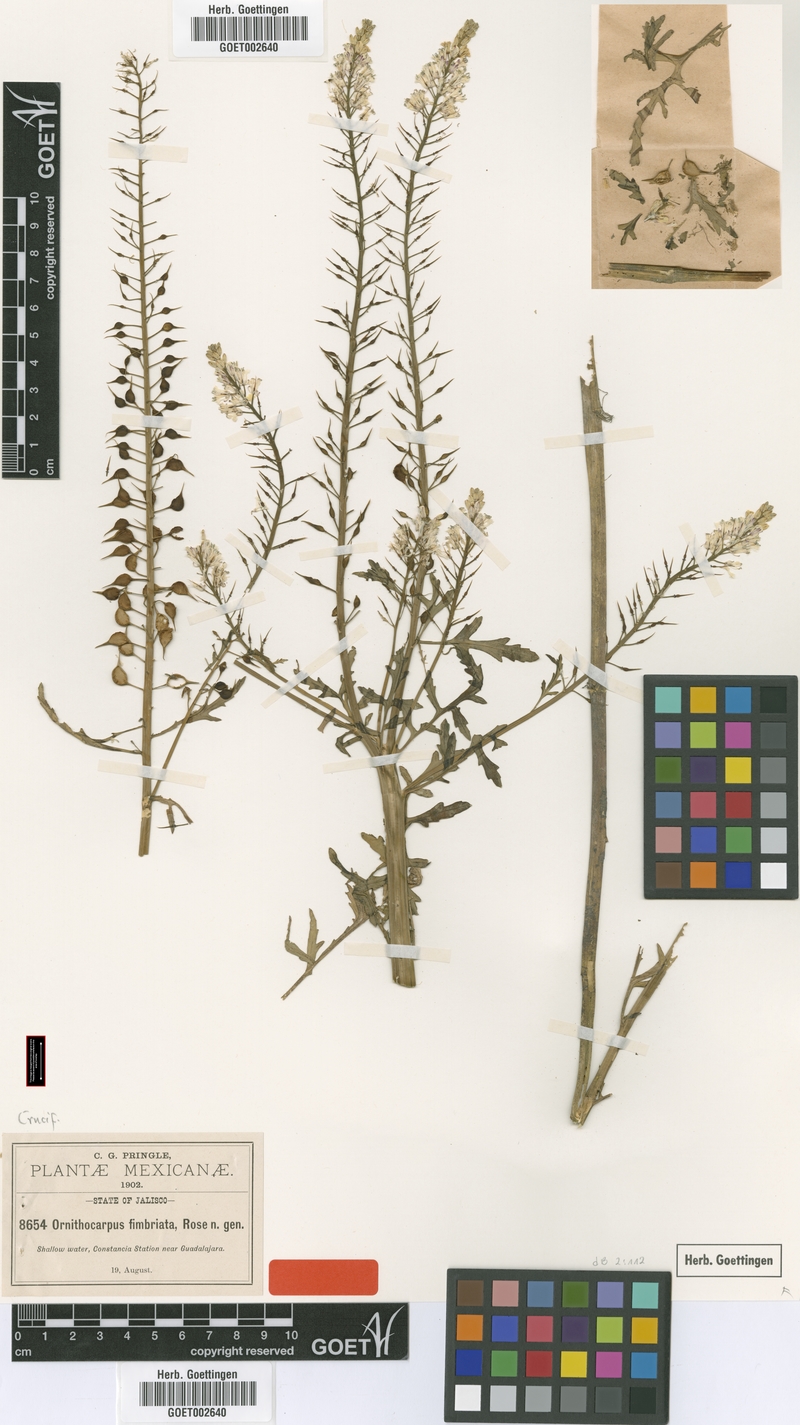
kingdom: Plantae
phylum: Tracheophyta
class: Magnoliopsida
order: Brassicales
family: Brassicaceae
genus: Ornithocarpa
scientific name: Ornithocarpa fimbriata
